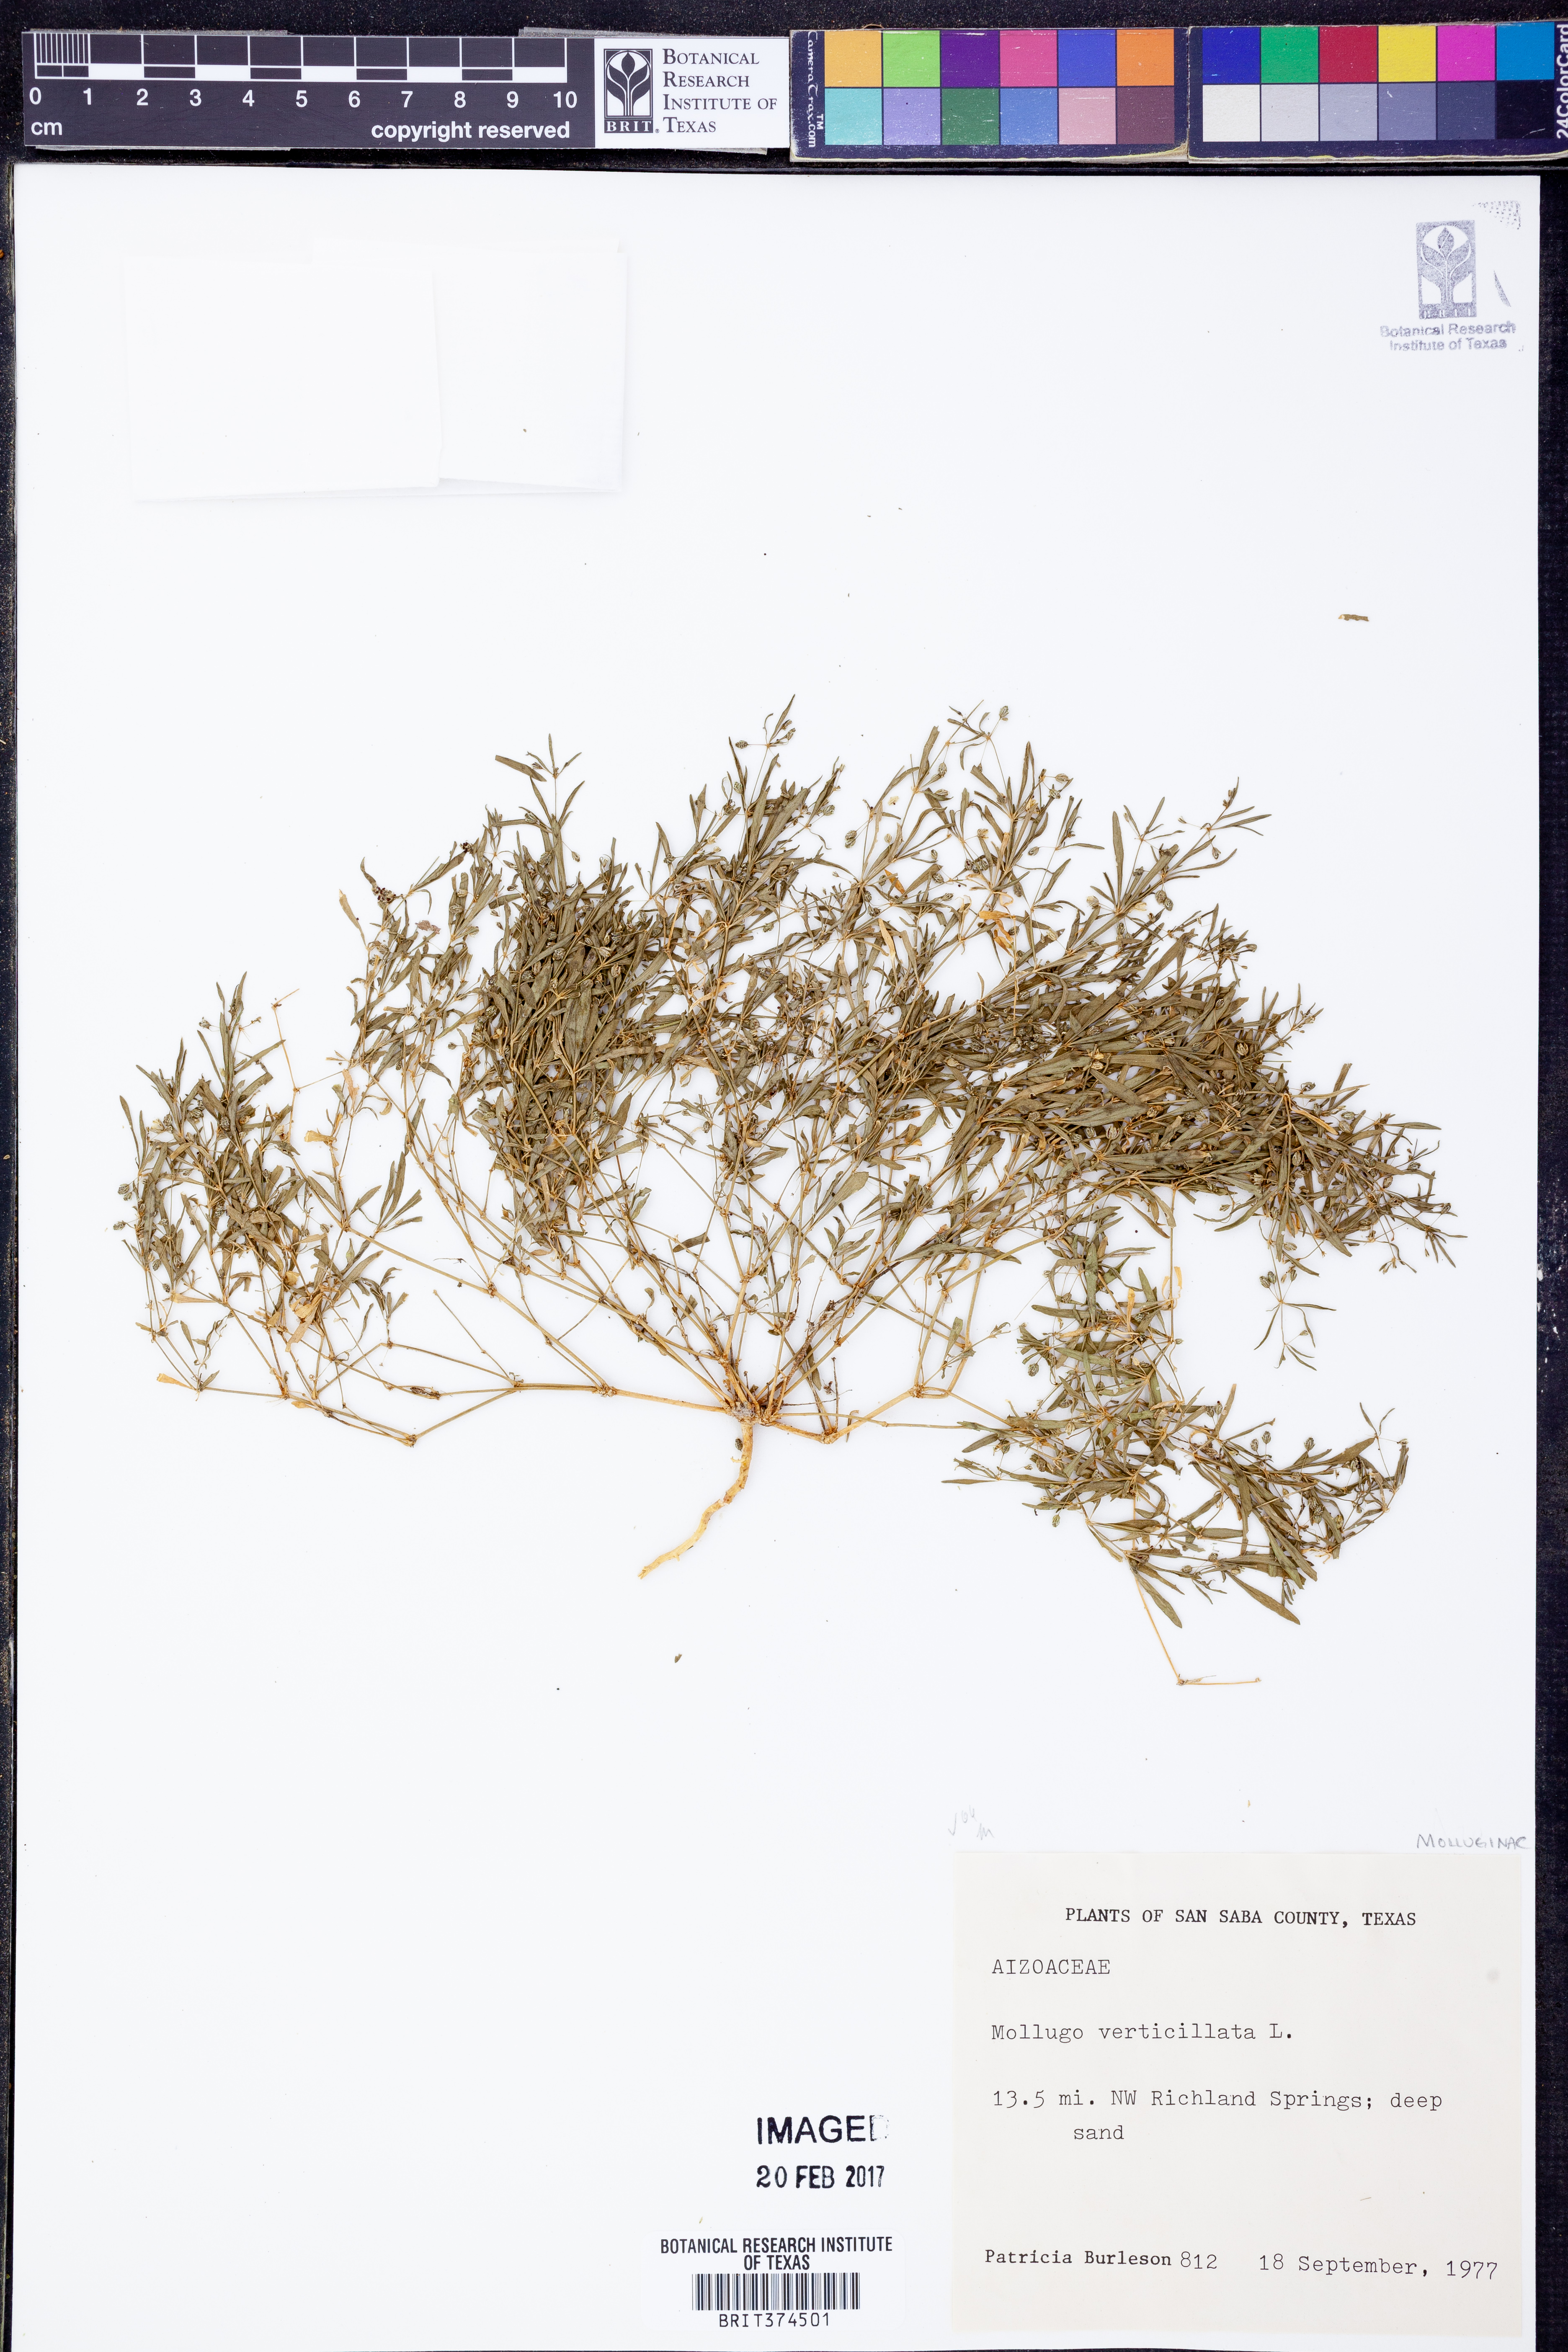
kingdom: Plantae
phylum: Tracheophyta
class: Magnoliopsida
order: Caryophyllales
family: Molluginaceae
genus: Mollugo
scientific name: Mollugo verticillata
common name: Green carpetweed
